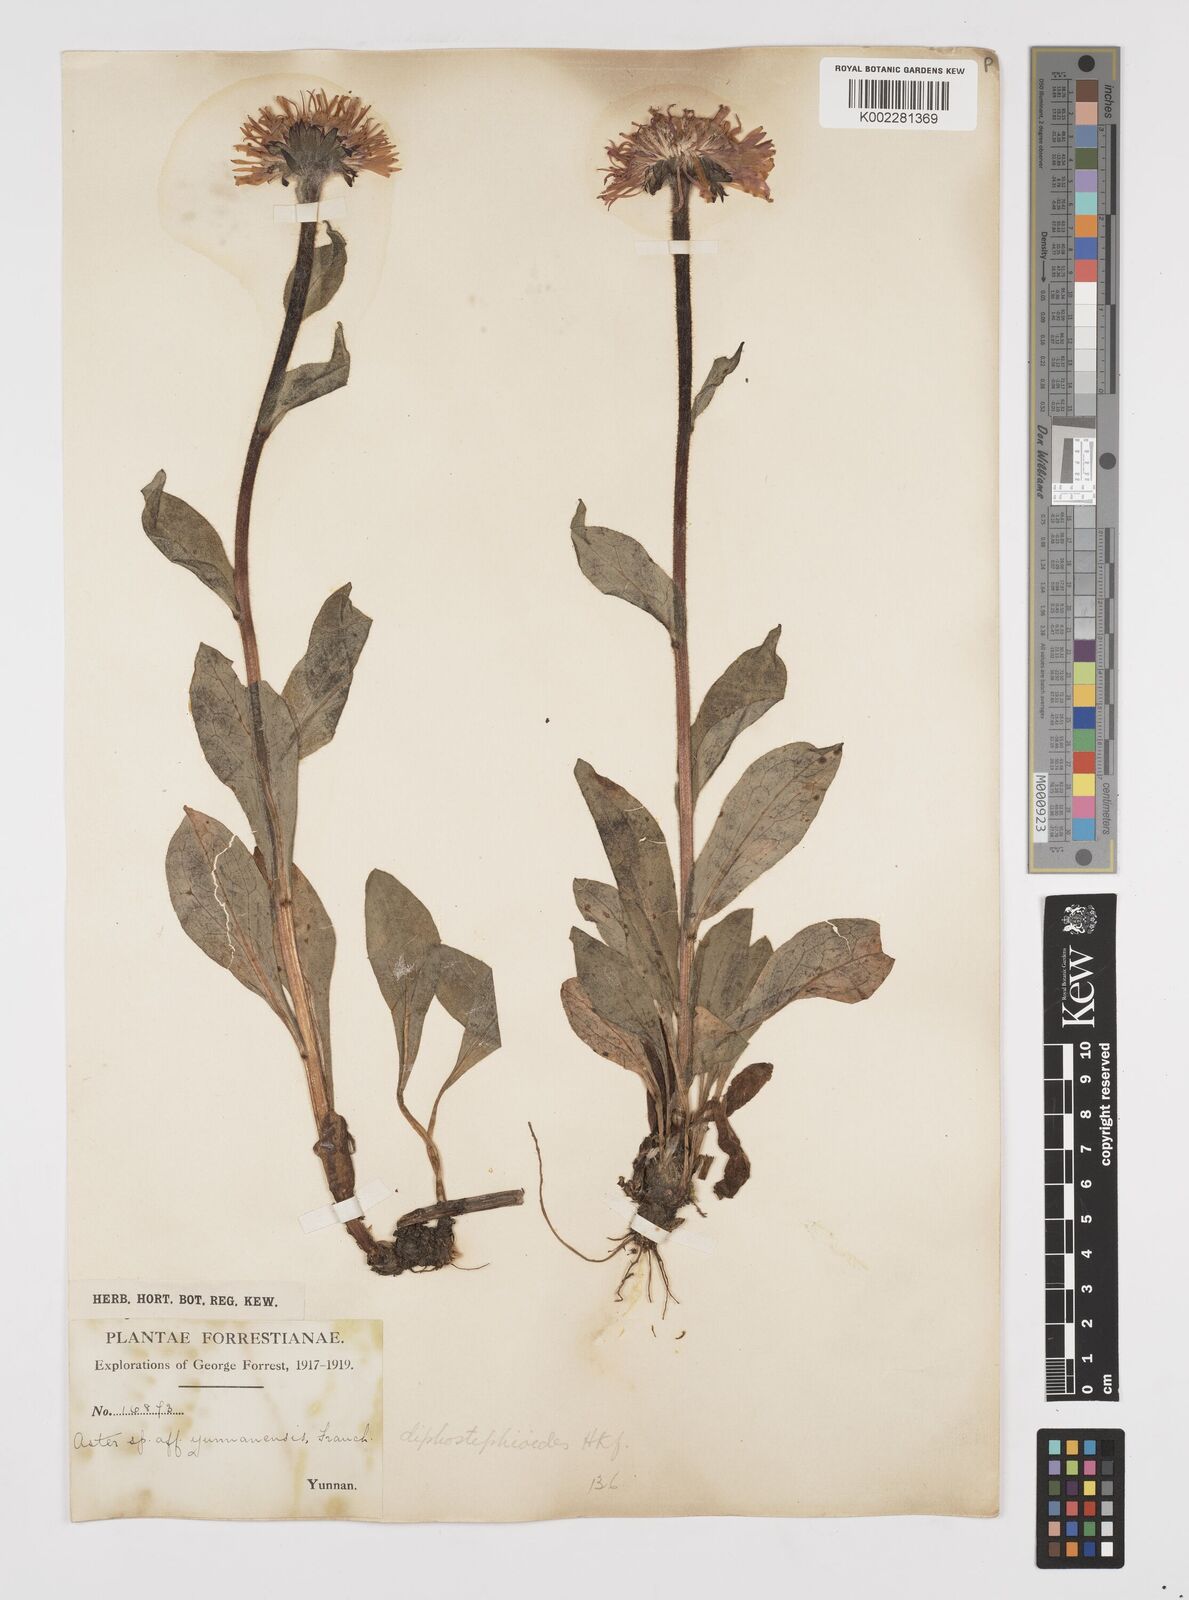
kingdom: Plantae
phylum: Tracheophyta
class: Magnoliopsida
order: Asterales
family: Asteraceae
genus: Tibetiodes
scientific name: Tibetiodes diplostephioides
